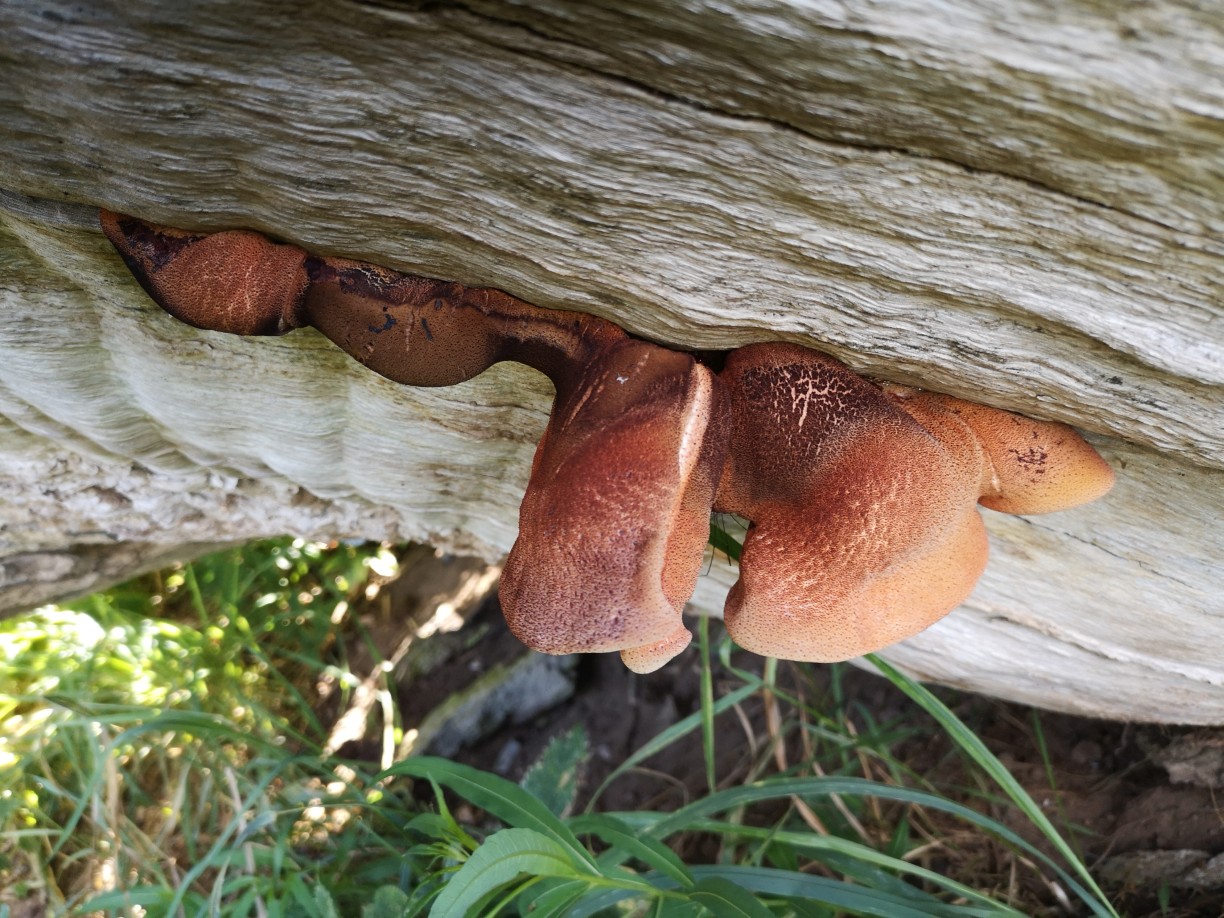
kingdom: Fungi
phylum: Basidiomycota
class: Agaricomycetes
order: Agaricales
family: Fistulinaceae
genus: Fistulina
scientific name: Fistulina hepatica
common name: oksetunge
